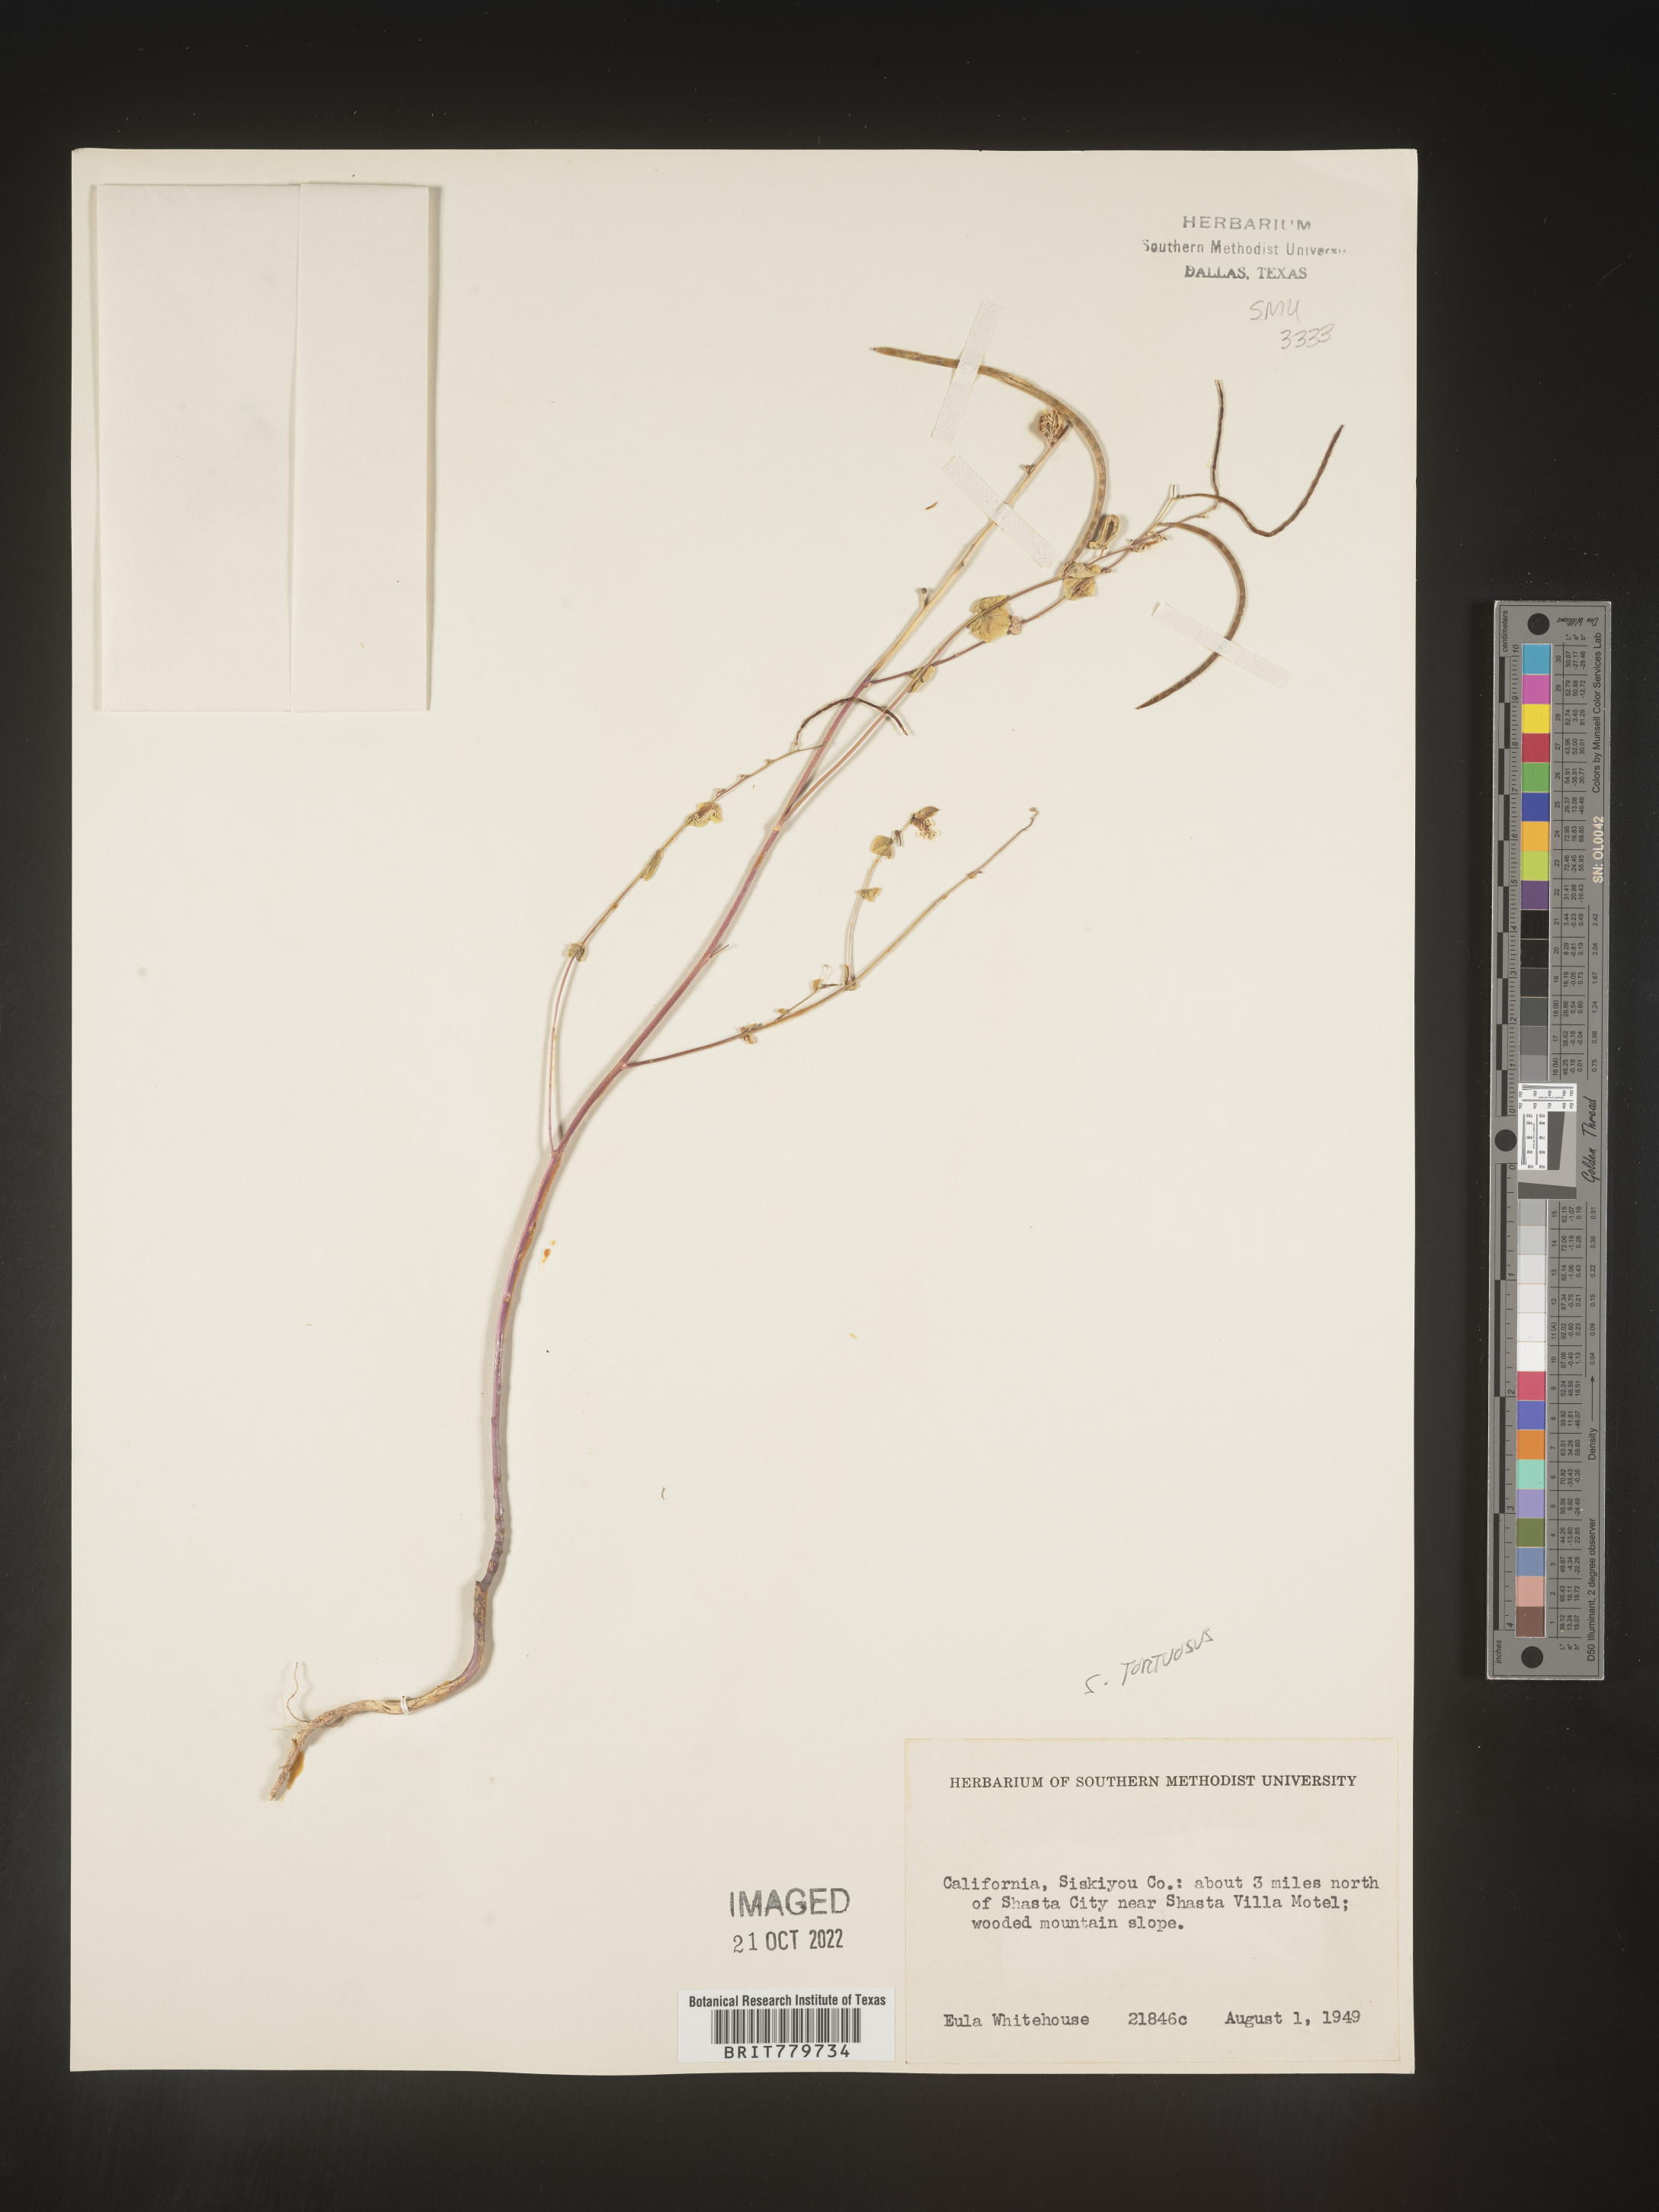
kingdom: Plantae
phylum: Tracheophyta
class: Magnoliopsida
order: Brassicales
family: Brassicaceae
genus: Streptanthus
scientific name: Streptanthus
